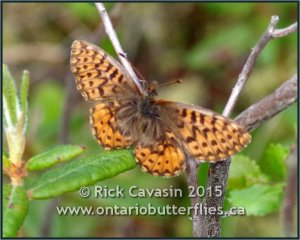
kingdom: Animalia
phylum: Arthropoda
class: Insecta
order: Lepidoptera
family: Nymphalidae
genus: Boloria
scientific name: Boloria freija
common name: Freija Fritillary
